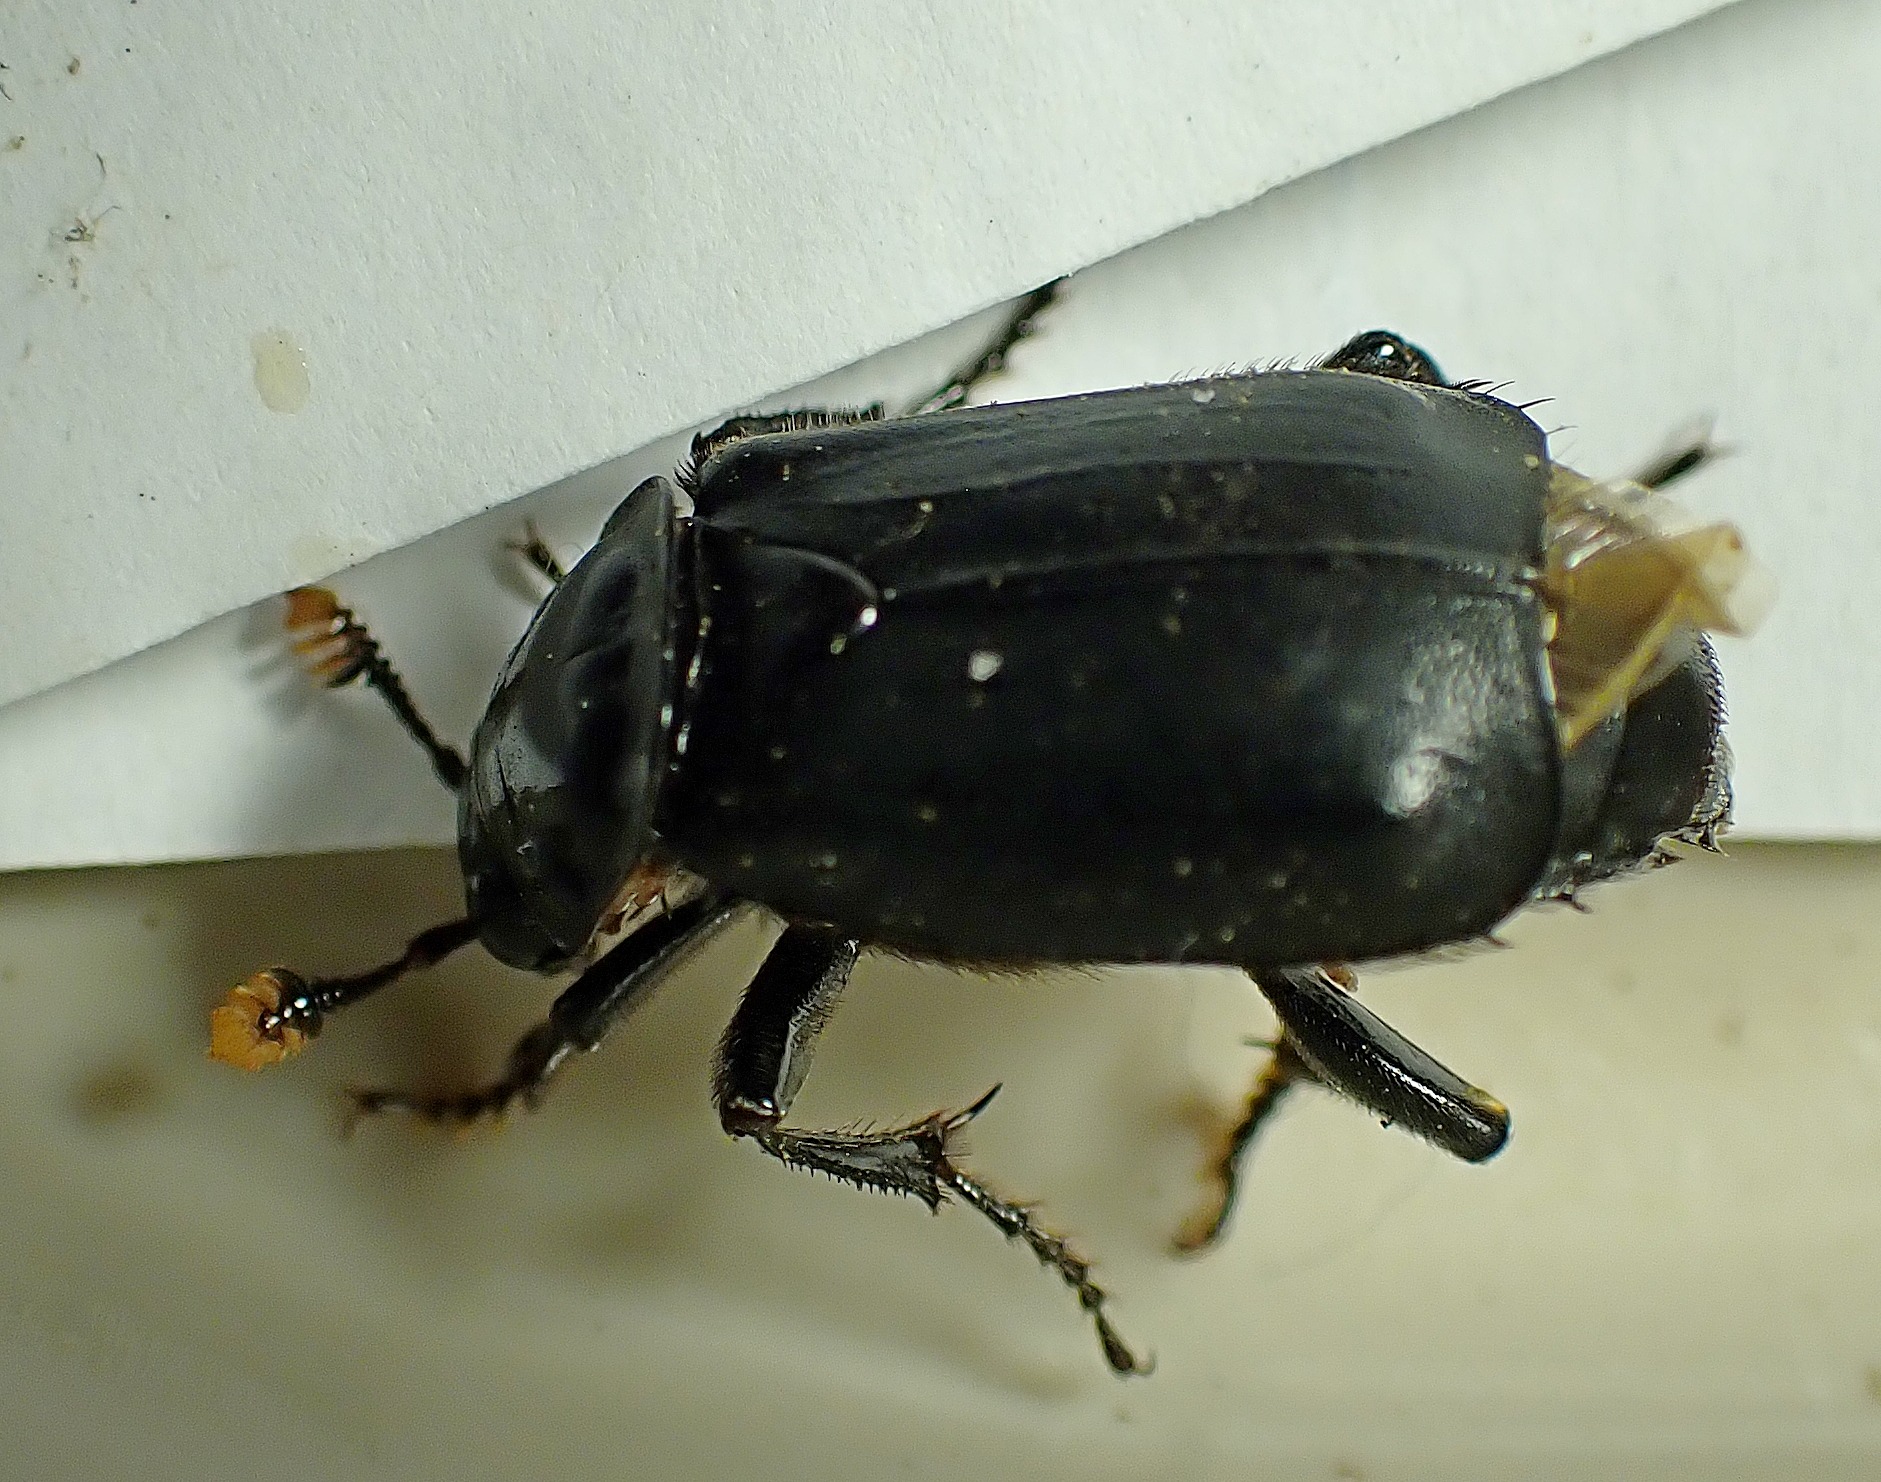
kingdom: Animalia
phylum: Arthropoda
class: Insecta
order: Coleoptera
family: Staphylinidae
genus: Nicrophorus
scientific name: Nicrophorus humator
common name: Sort ådselgraver
